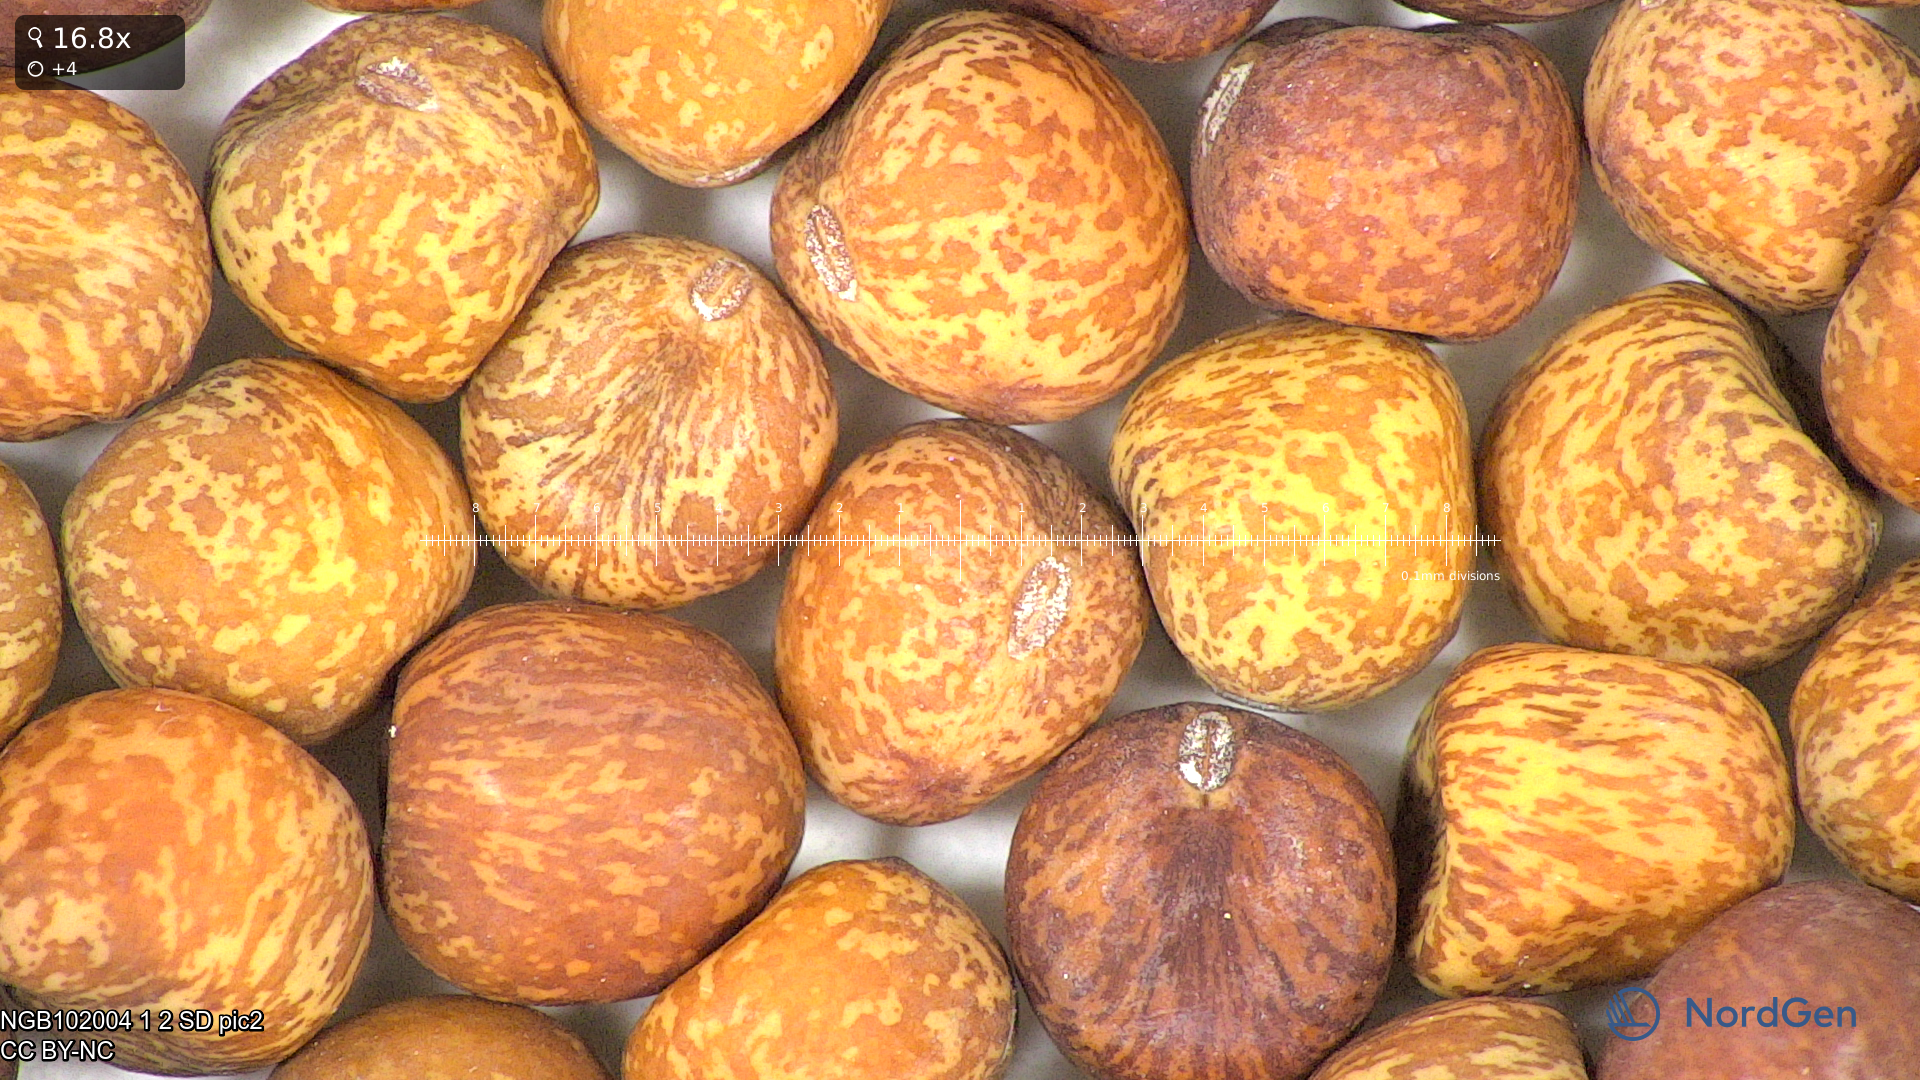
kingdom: Plantae
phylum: Tracheophyta
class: Magnoliopsida
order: Fabales
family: Fabaceae
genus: Lathyrus
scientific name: Lathyrus oleraceus
